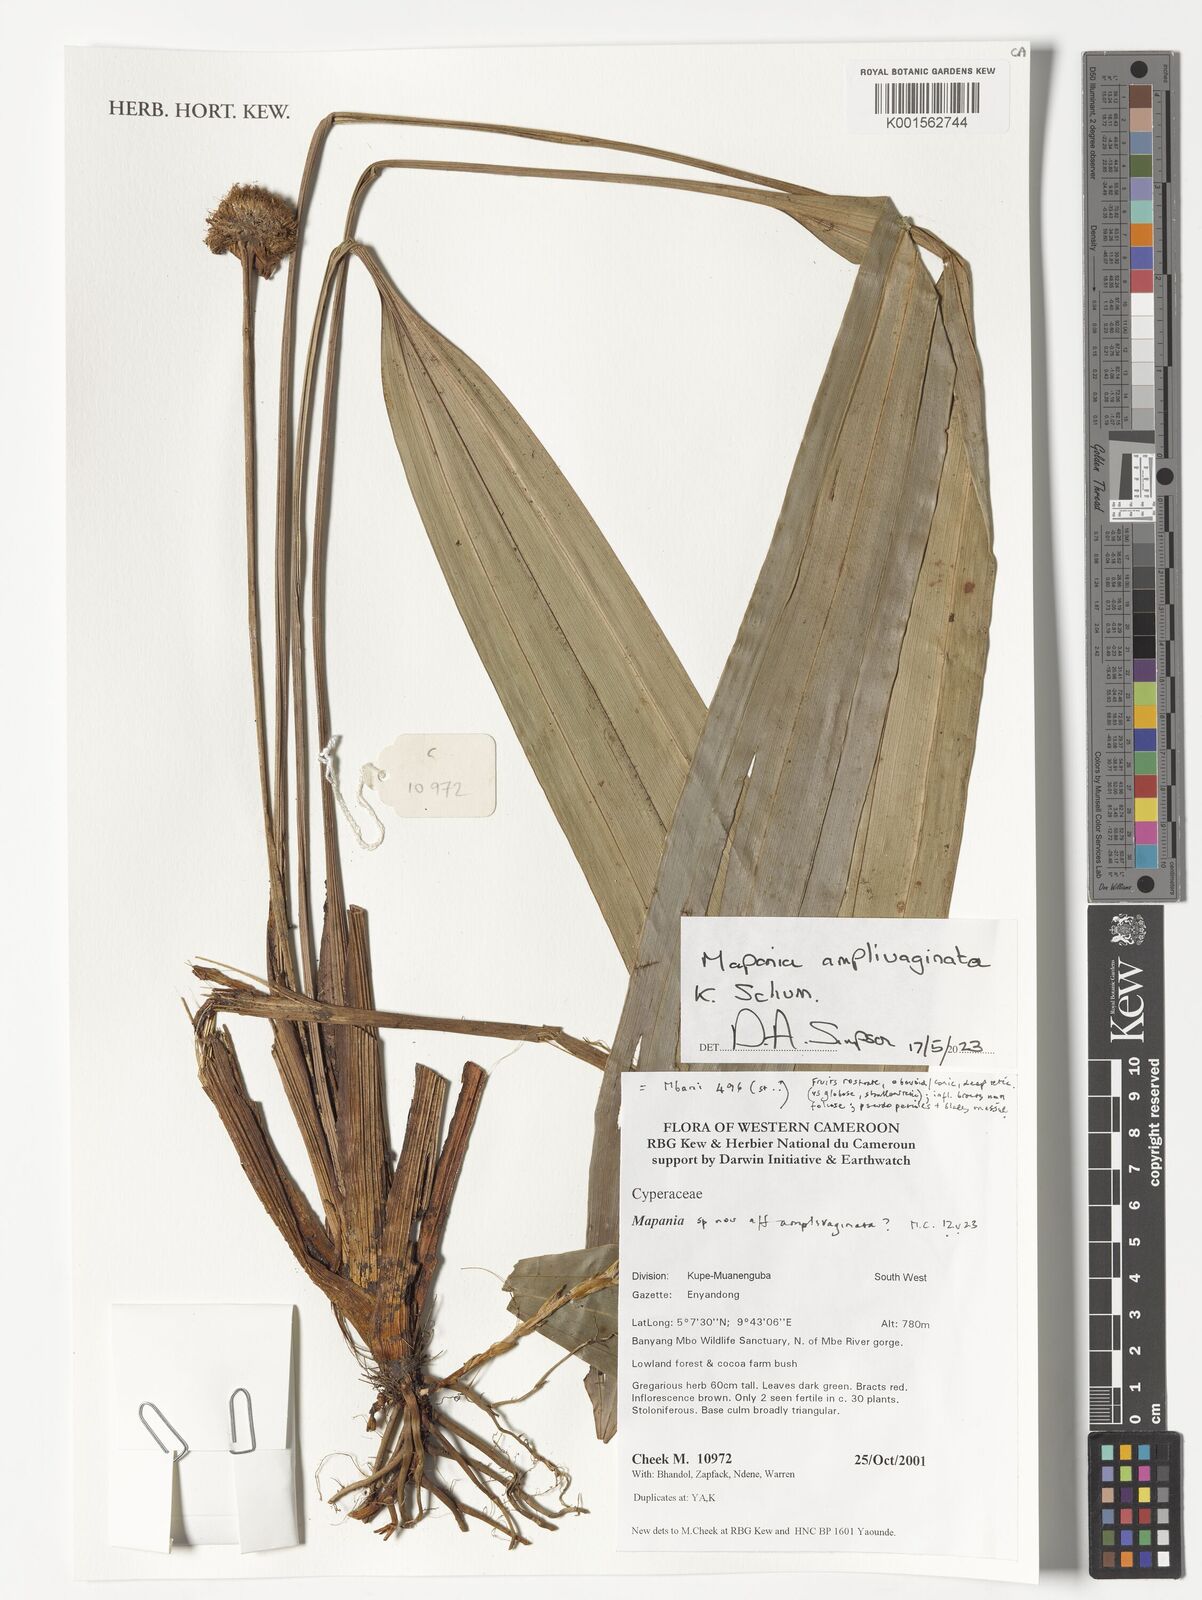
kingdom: Plantae
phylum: Tracheophyta
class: Liliopsida
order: Poales
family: Cyperaceae
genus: Mapania
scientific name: Mapania amplivaginata
